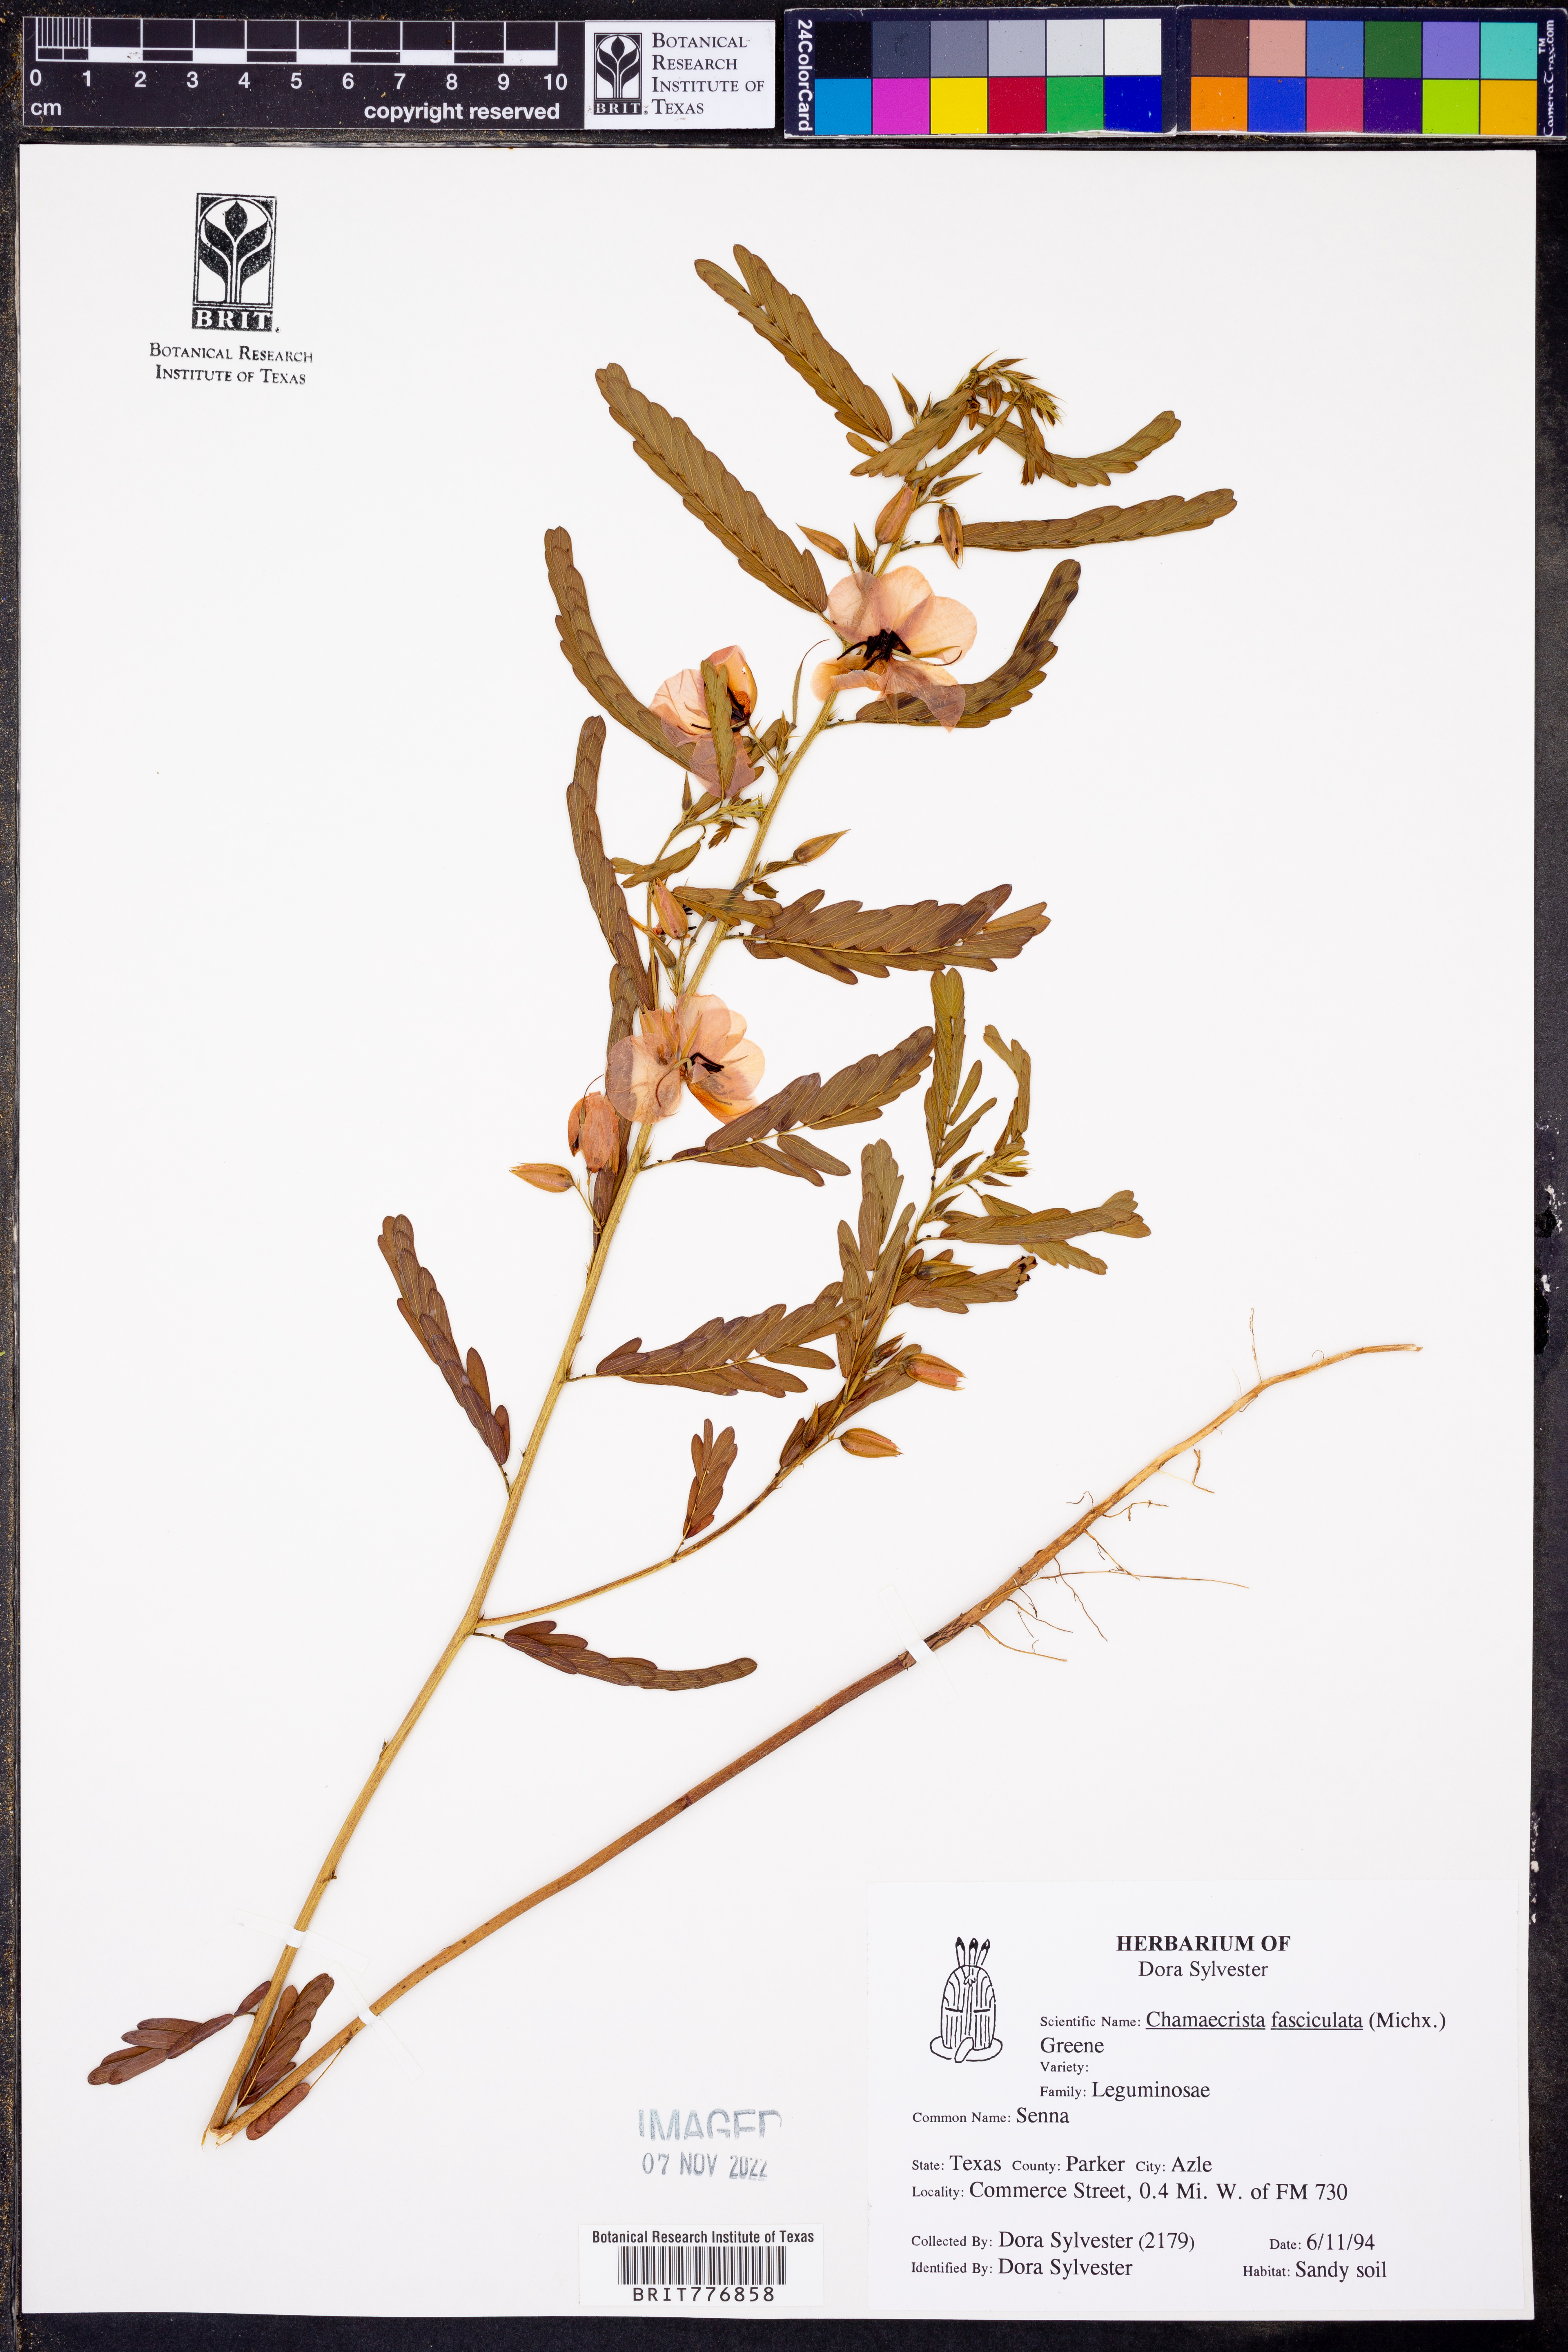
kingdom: Plantae
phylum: Tracheophyta
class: Magnoliopsida
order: Fabales
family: Fabaceae
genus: Chamaecrista
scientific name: Chamaecrista fasciculata
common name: Golden cassia
